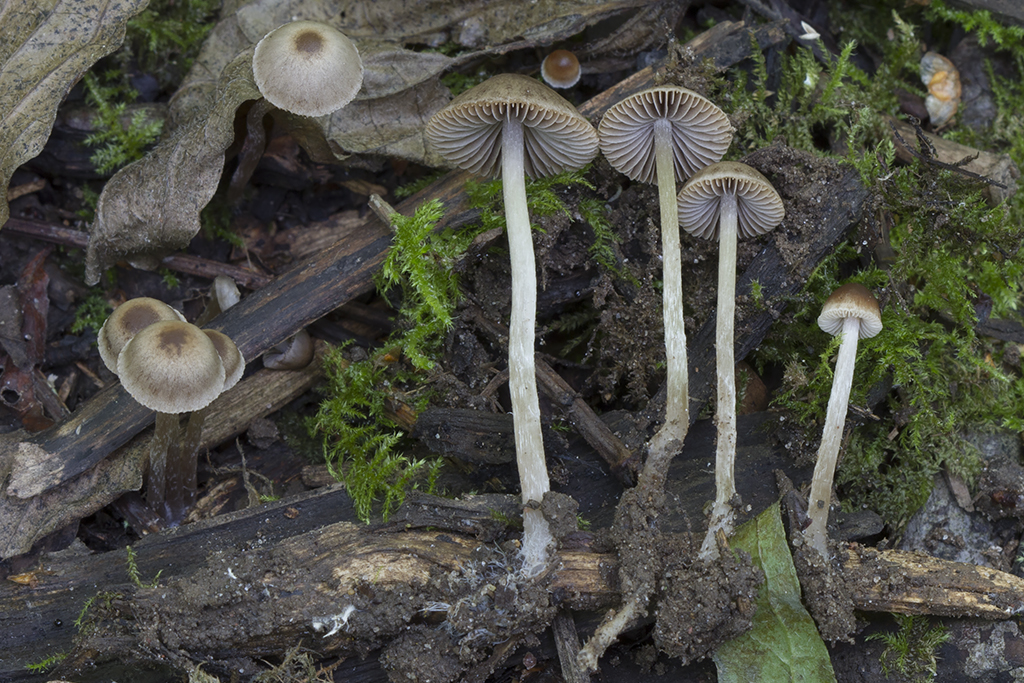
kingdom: Fungi
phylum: Basidiomycota
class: Agaricomycetes
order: Agaricales
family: Psathyrellaceae
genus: Psathyrella
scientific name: Psathyrella longicauda
